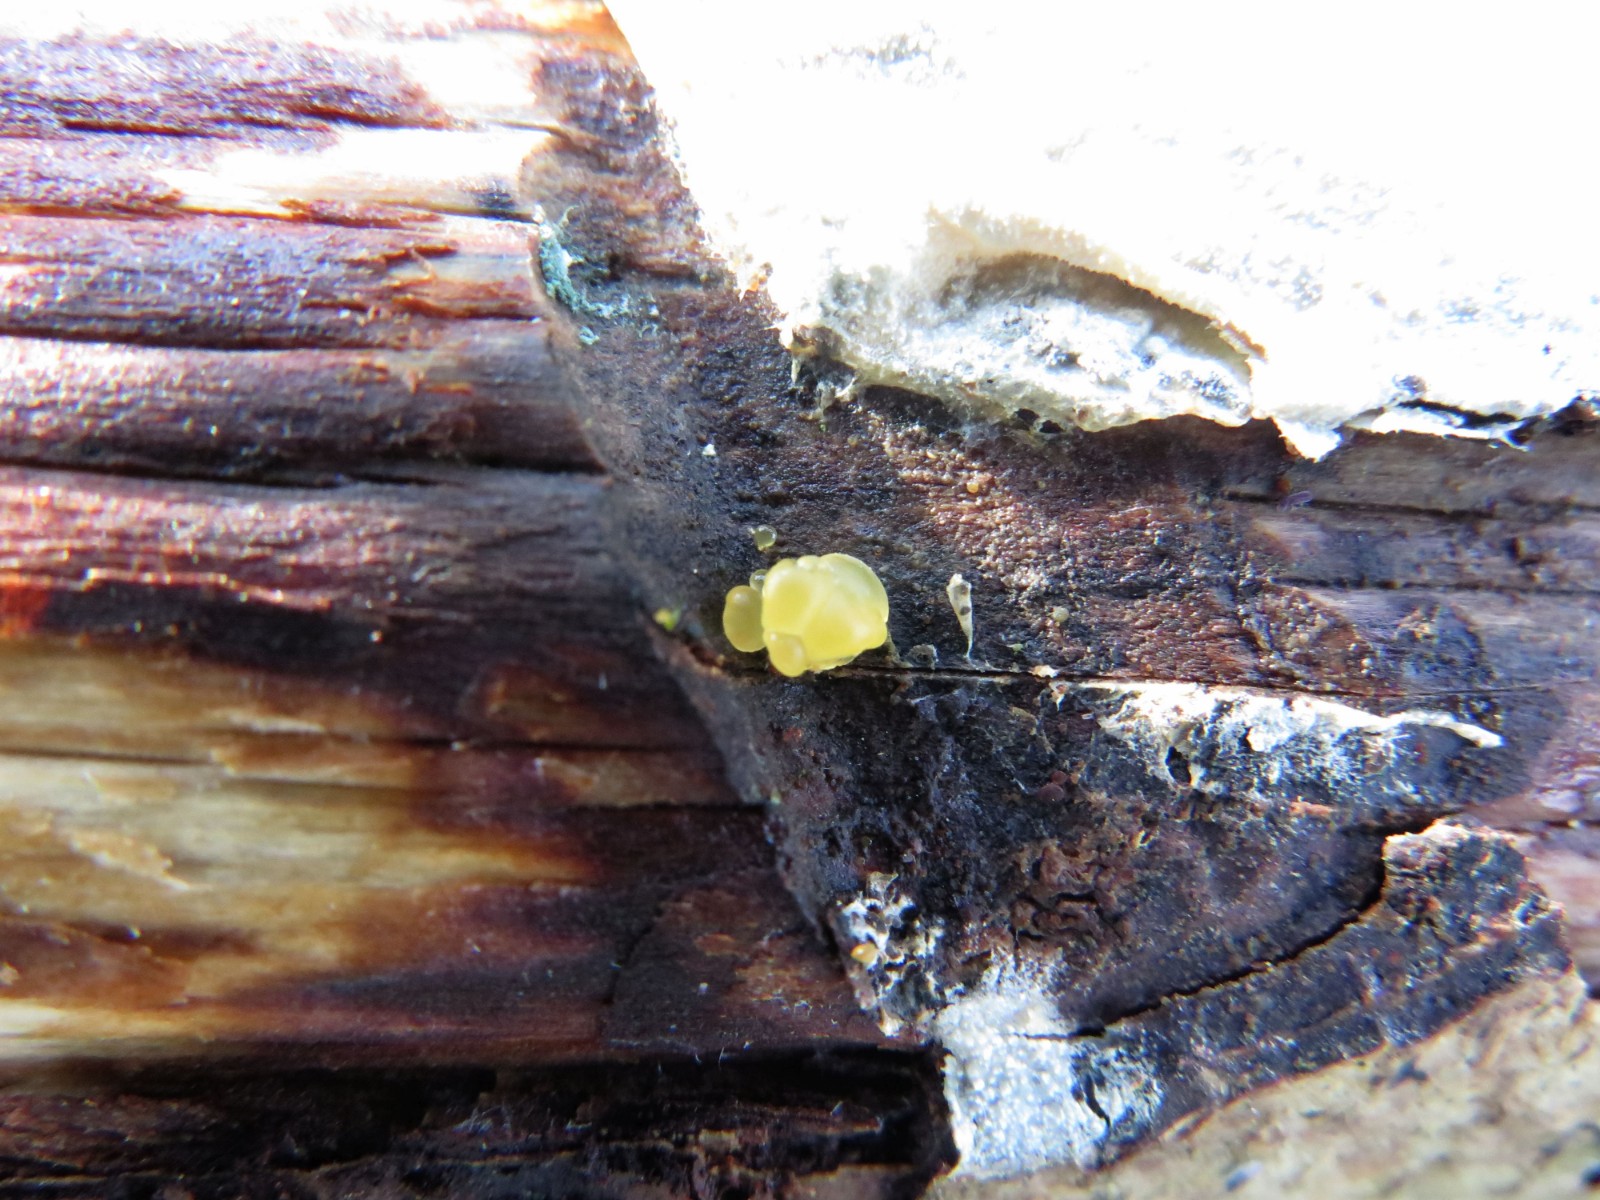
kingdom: Fungi
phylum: Basidiomycota
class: Dacrymycetes
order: Dacrymycetales
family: Dacrymycetaceae
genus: Dacrymyces
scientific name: Dacrymyces lacrymalis
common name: rynket tåresvamp
